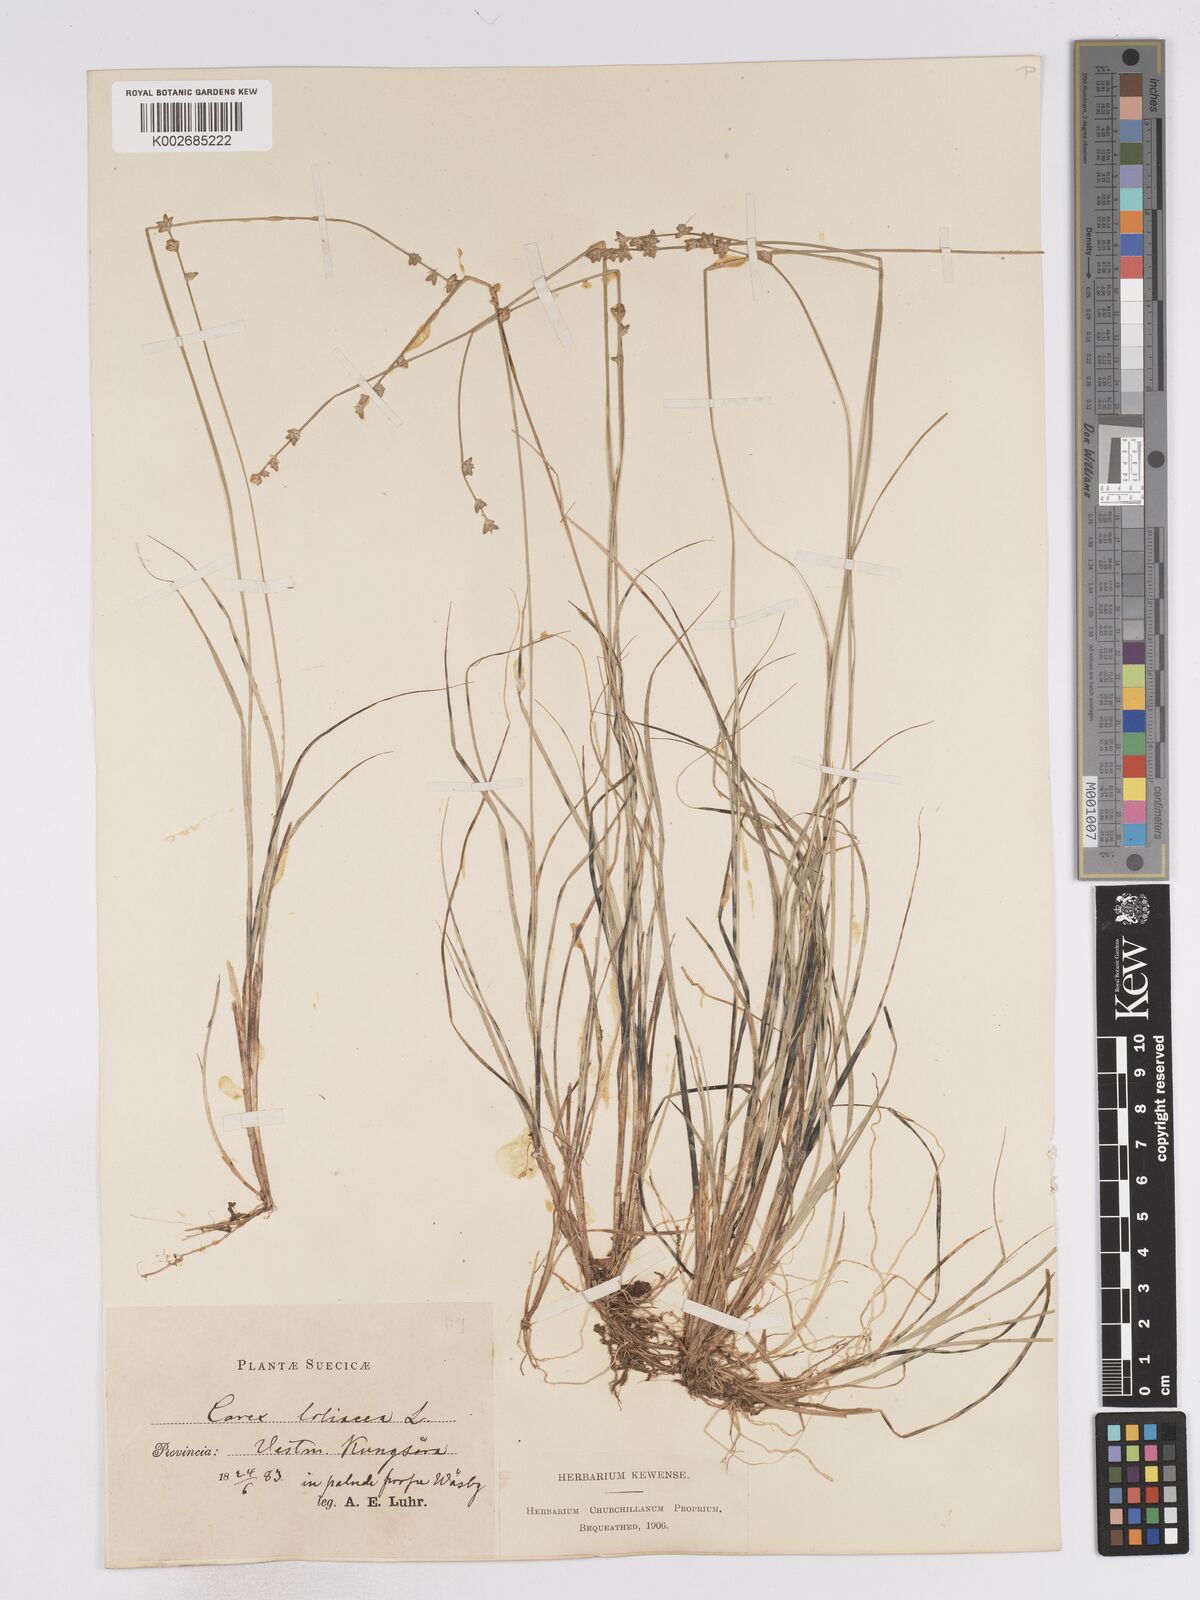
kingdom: Plantae
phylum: Tracheophyta
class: Liliopsida
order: Poales
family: Cyperaceae
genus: Carex
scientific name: Carex loliacea
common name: Ryegrass sedge
